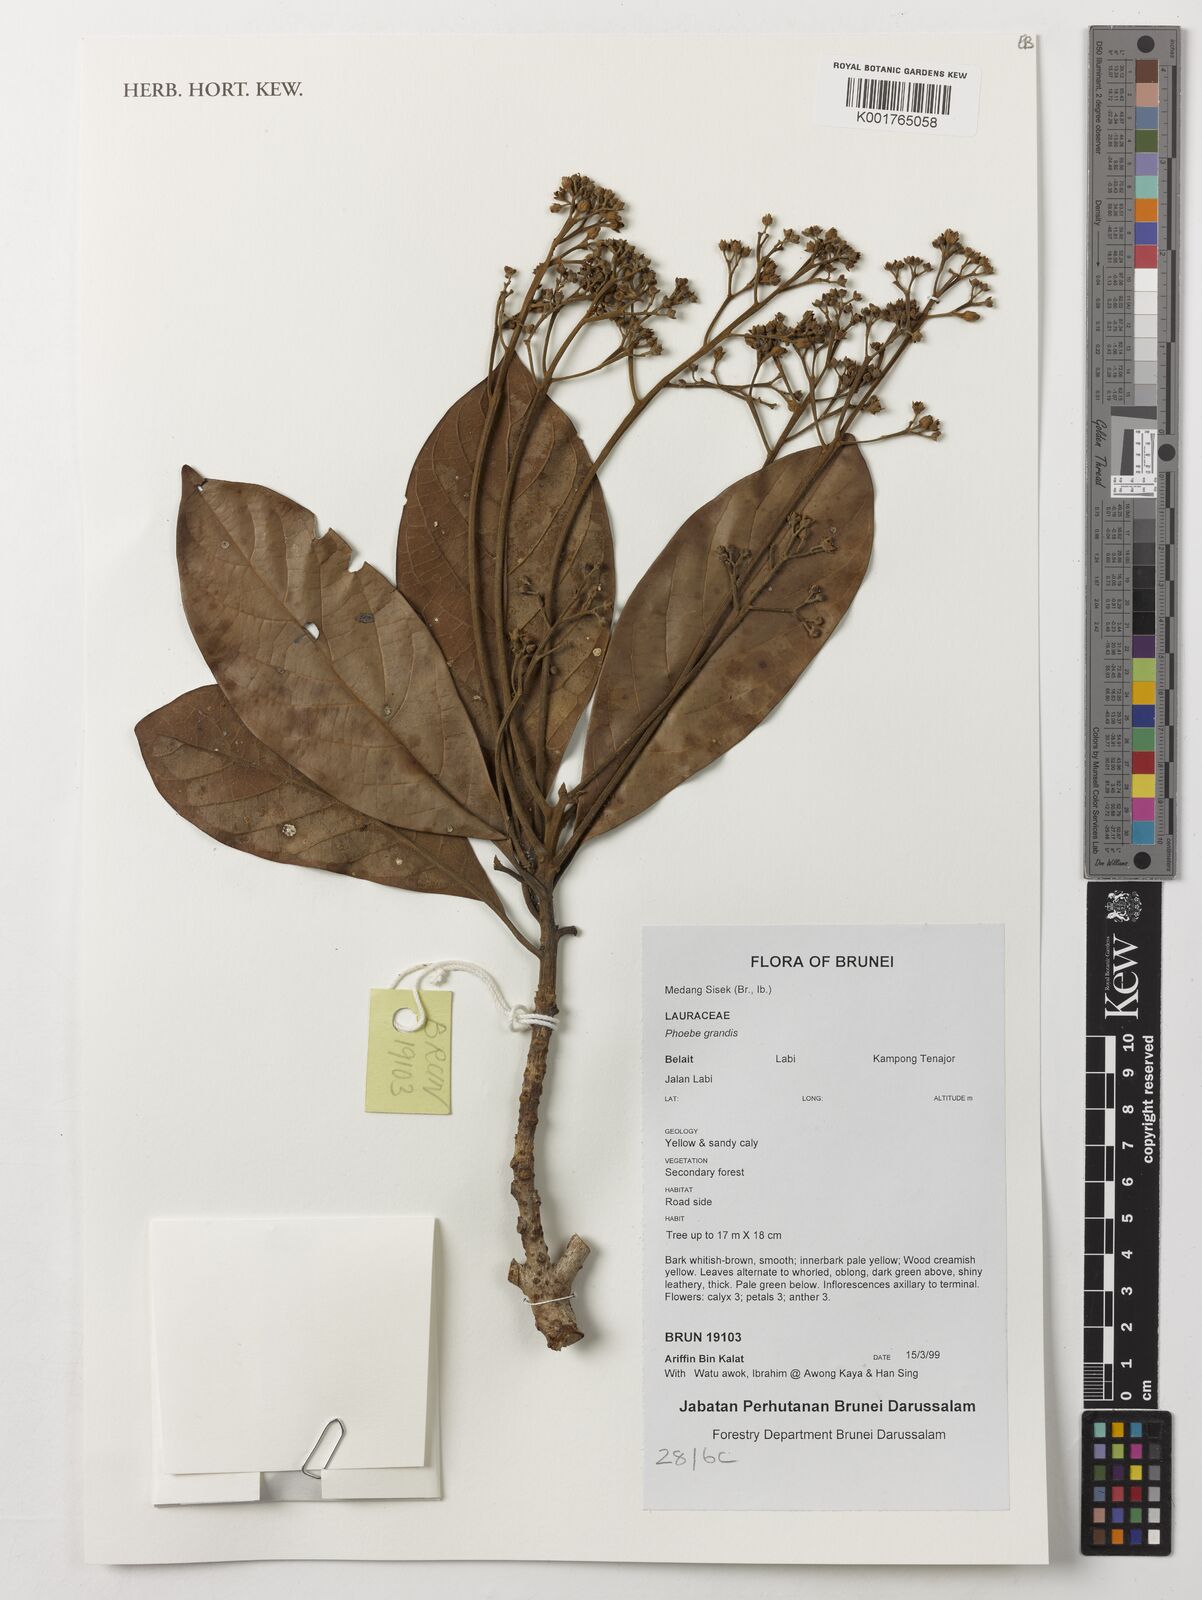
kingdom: Plantae
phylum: Tracheophyta
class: Magnoliopsida
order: Laurales
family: Lauraceae
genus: Phoebe
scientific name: Phoebe grandis
